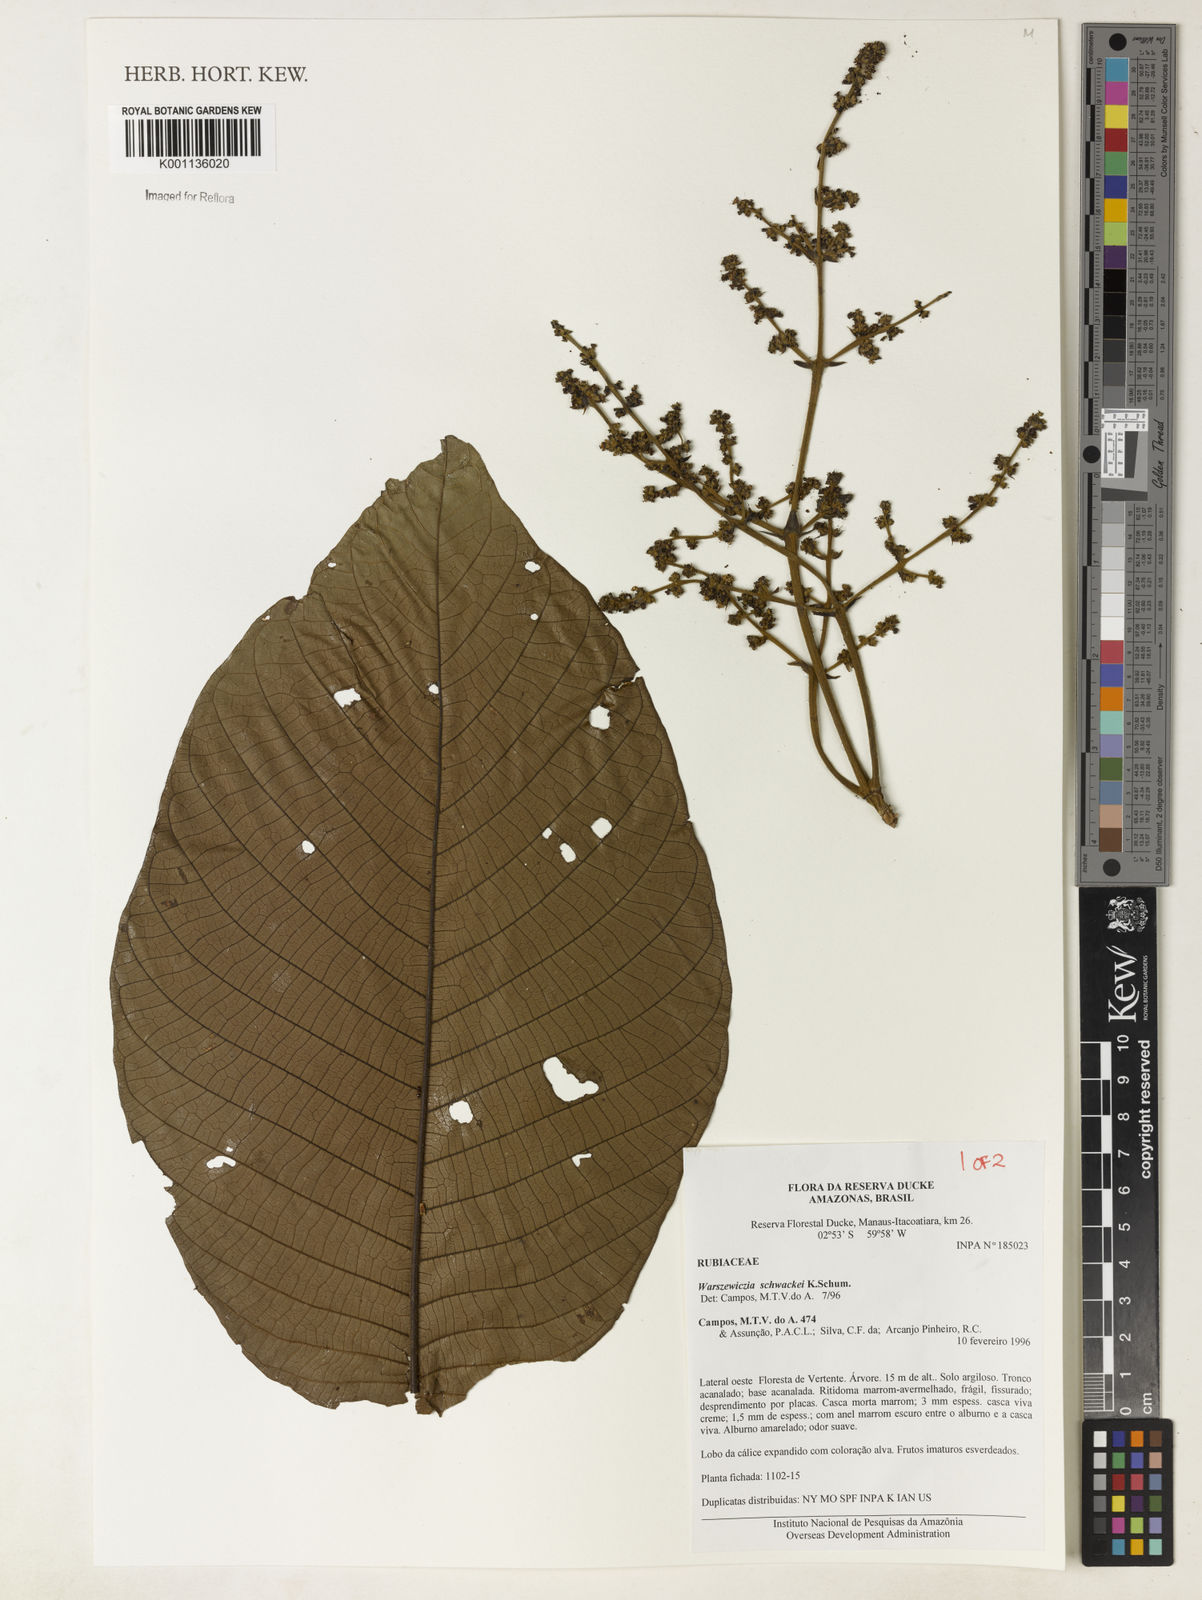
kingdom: Plantae
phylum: Tracheophyta
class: Magnoliopsida
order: Gentianales
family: Rubiaceae
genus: Warszewiczia
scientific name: Warszewiczia schwackei
